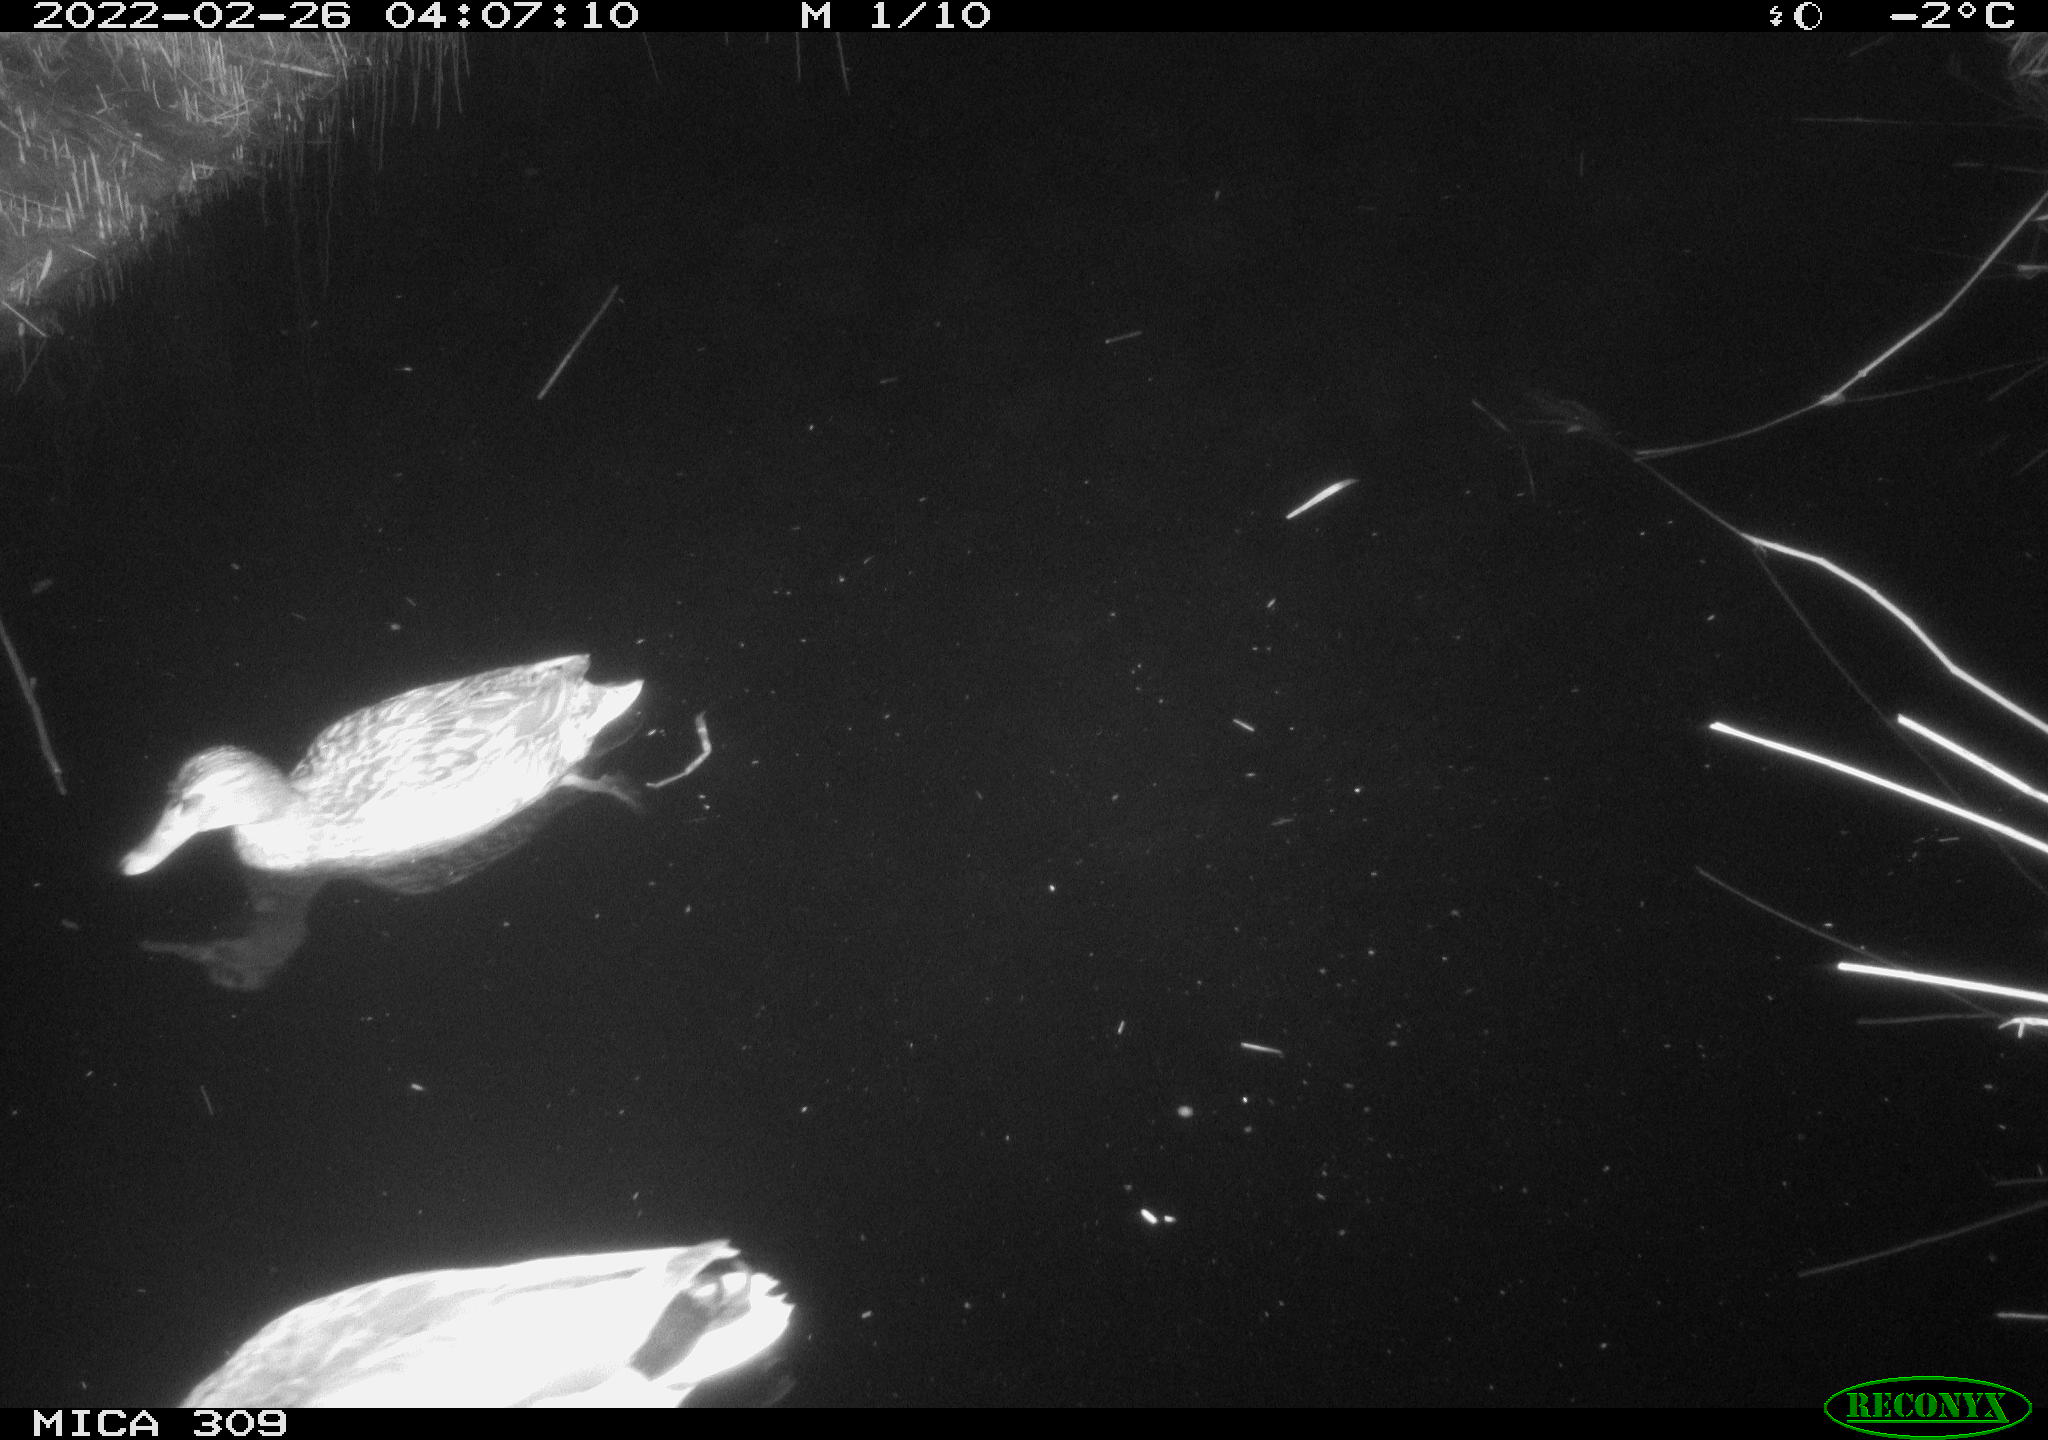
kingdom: Animalia
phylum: Chordata
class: Aves
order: Anseriformes
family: Anatidae
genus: Anas
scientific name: Anas platyrhynchos
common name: Mallard
